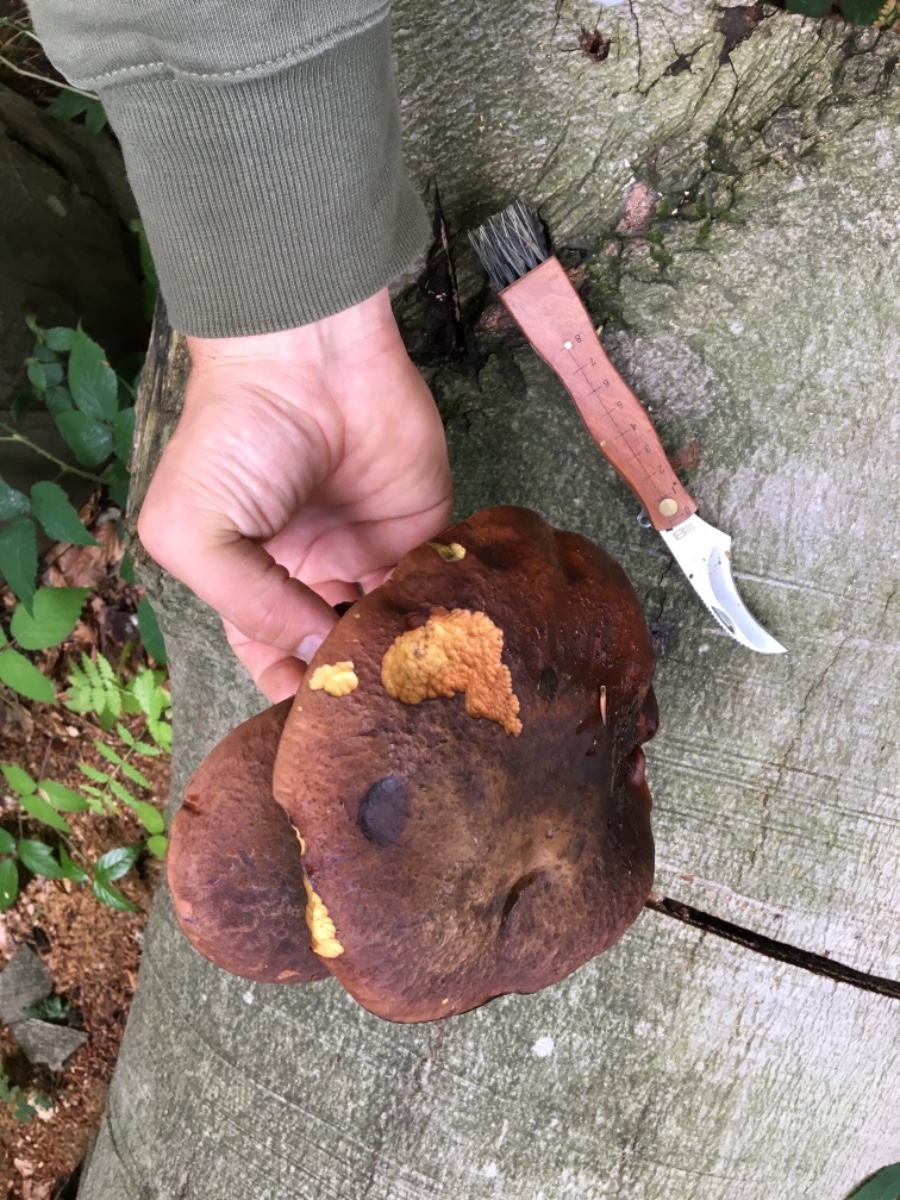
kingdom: Fungi
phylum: Basidiomycota
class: Agaricomycetes
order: Boletales
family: Boletaceae
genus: Neoboletus
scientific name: Neoboletus erythropus
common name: punktstokket indigorørhat
